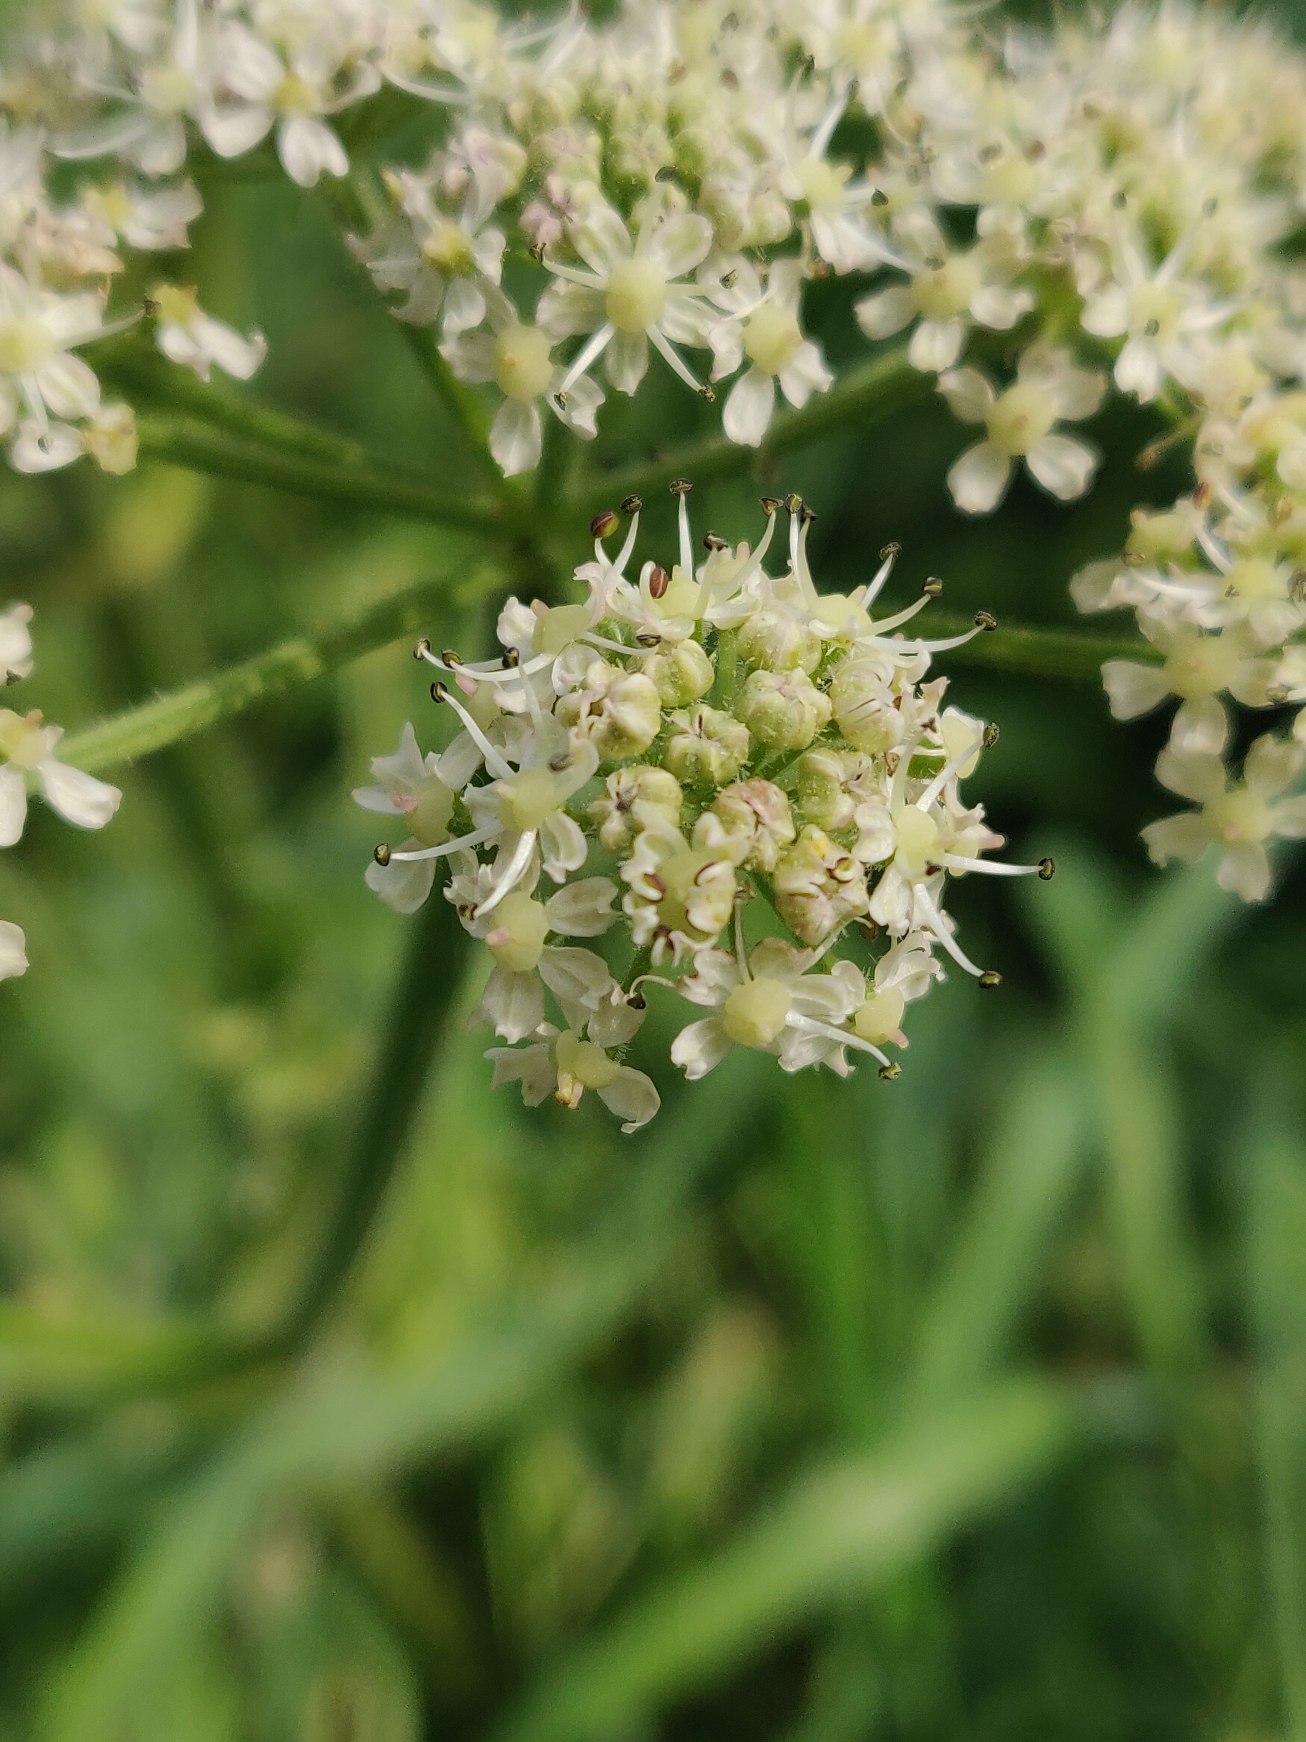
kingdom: Plantae
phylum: Tracheophyta
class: Magnoliopsida
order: Apiales
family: Apiaceae
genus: Heracleum
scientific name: Heracleum sphondylium
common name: Almindelig bjørneklo
